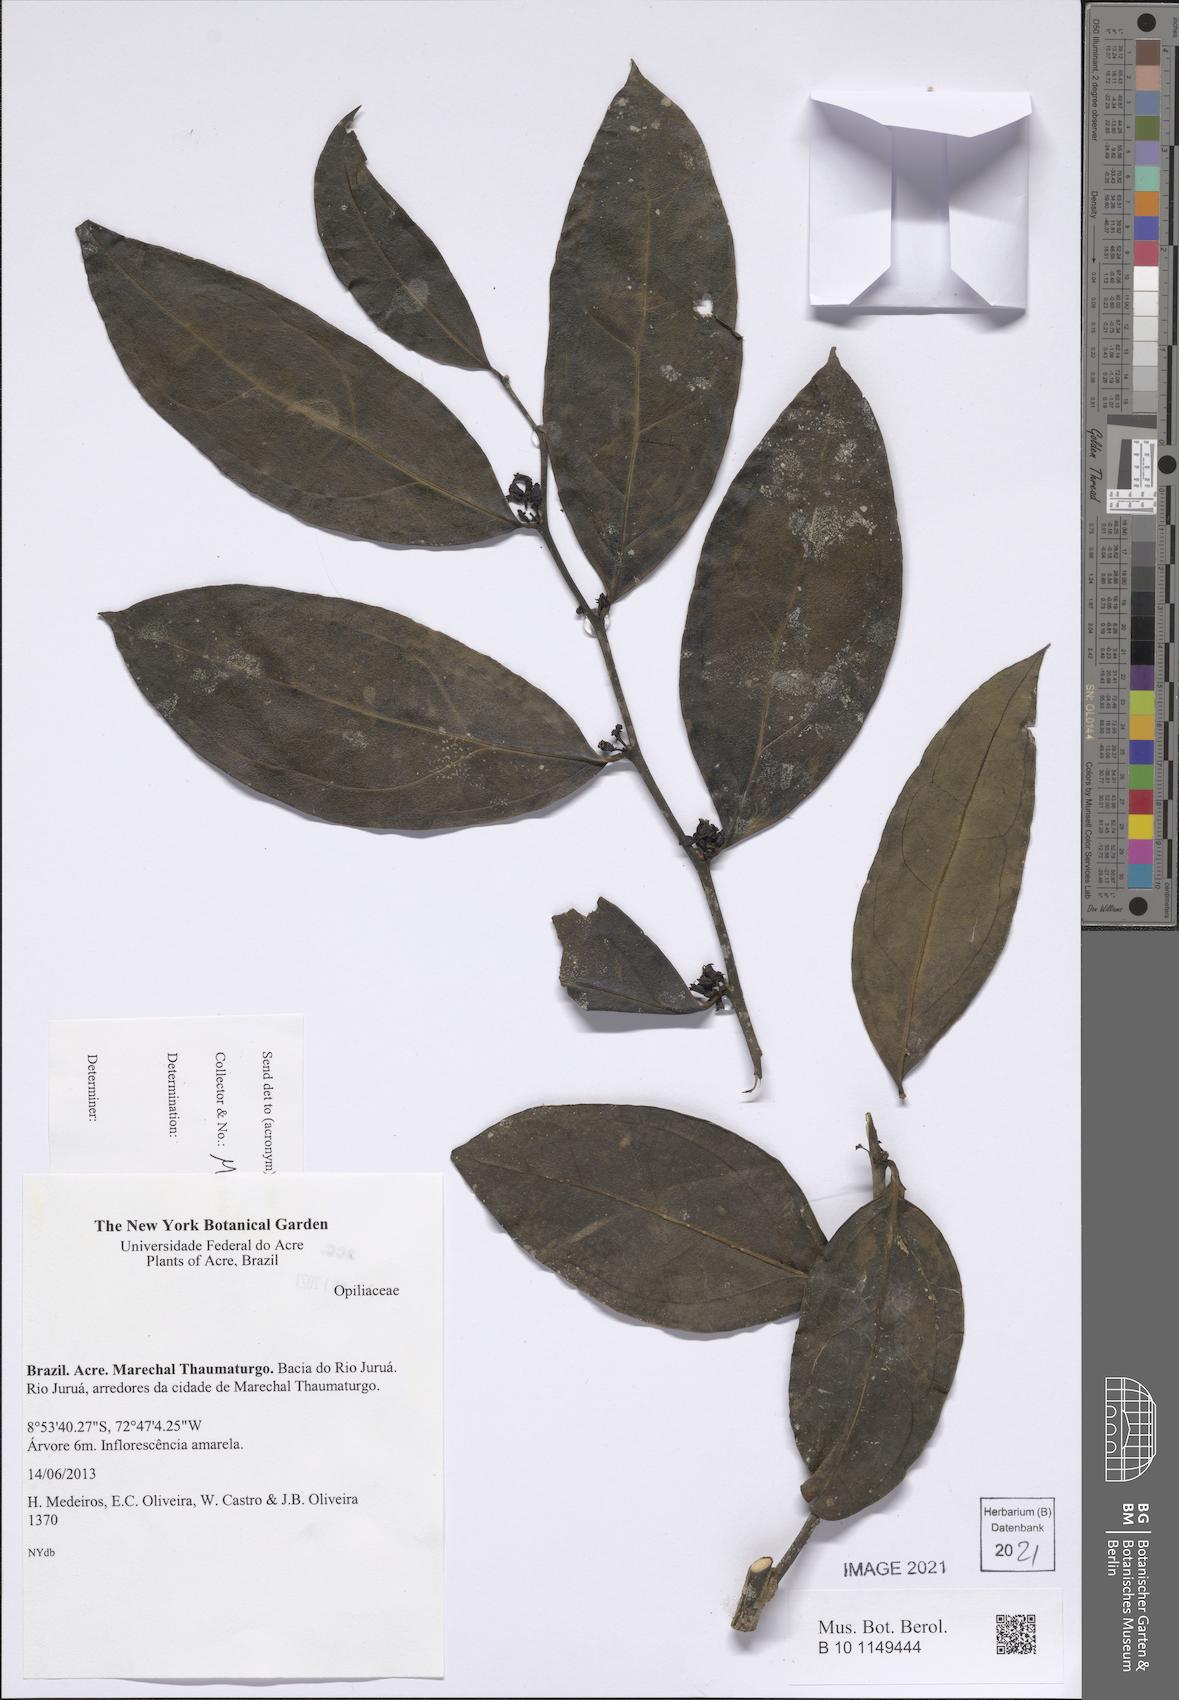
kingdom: Plantae
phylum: Tracheophyta
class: Magnoliopsida
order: Santalales
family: Opiliaceae
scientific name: Opiliaceae
